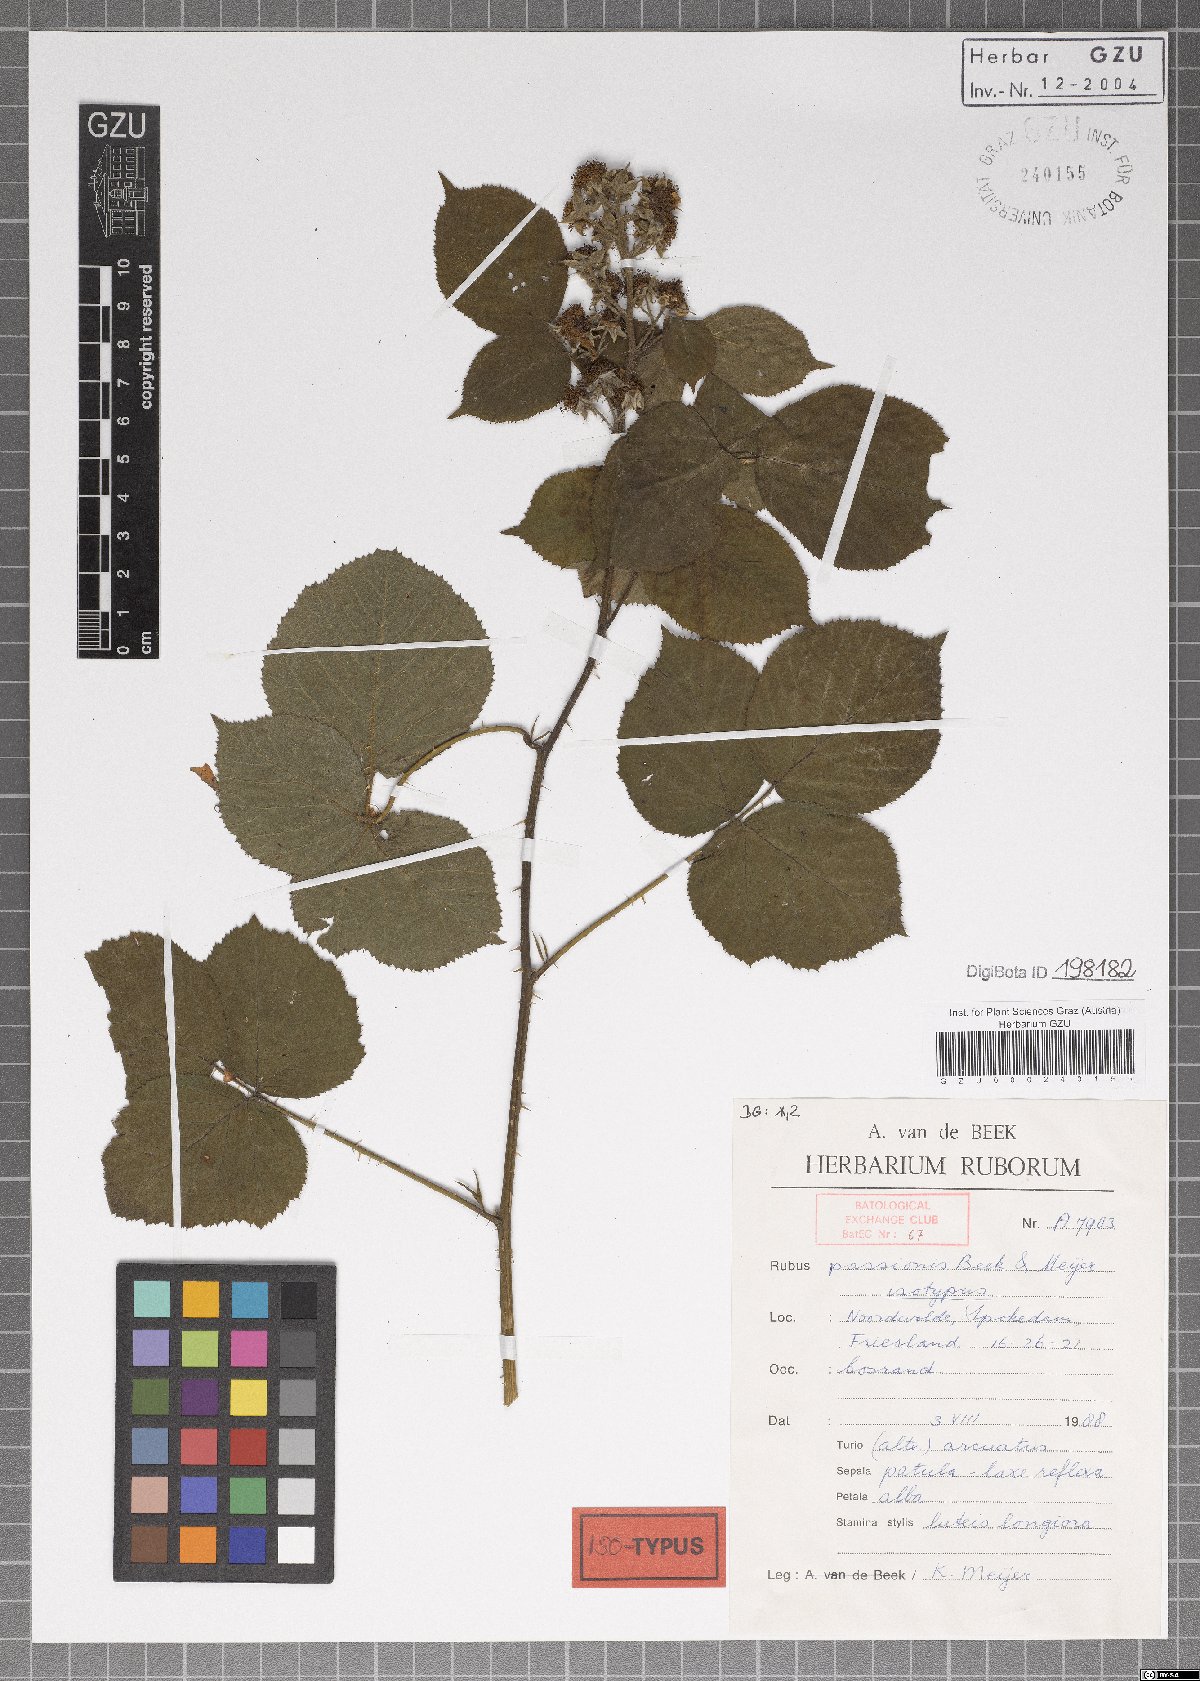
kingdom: Plantae
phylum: Tracheophyta
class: Magnoliopsida
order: Rosales
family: Rosaceae
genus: Rubus
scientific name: Rubus passionis
